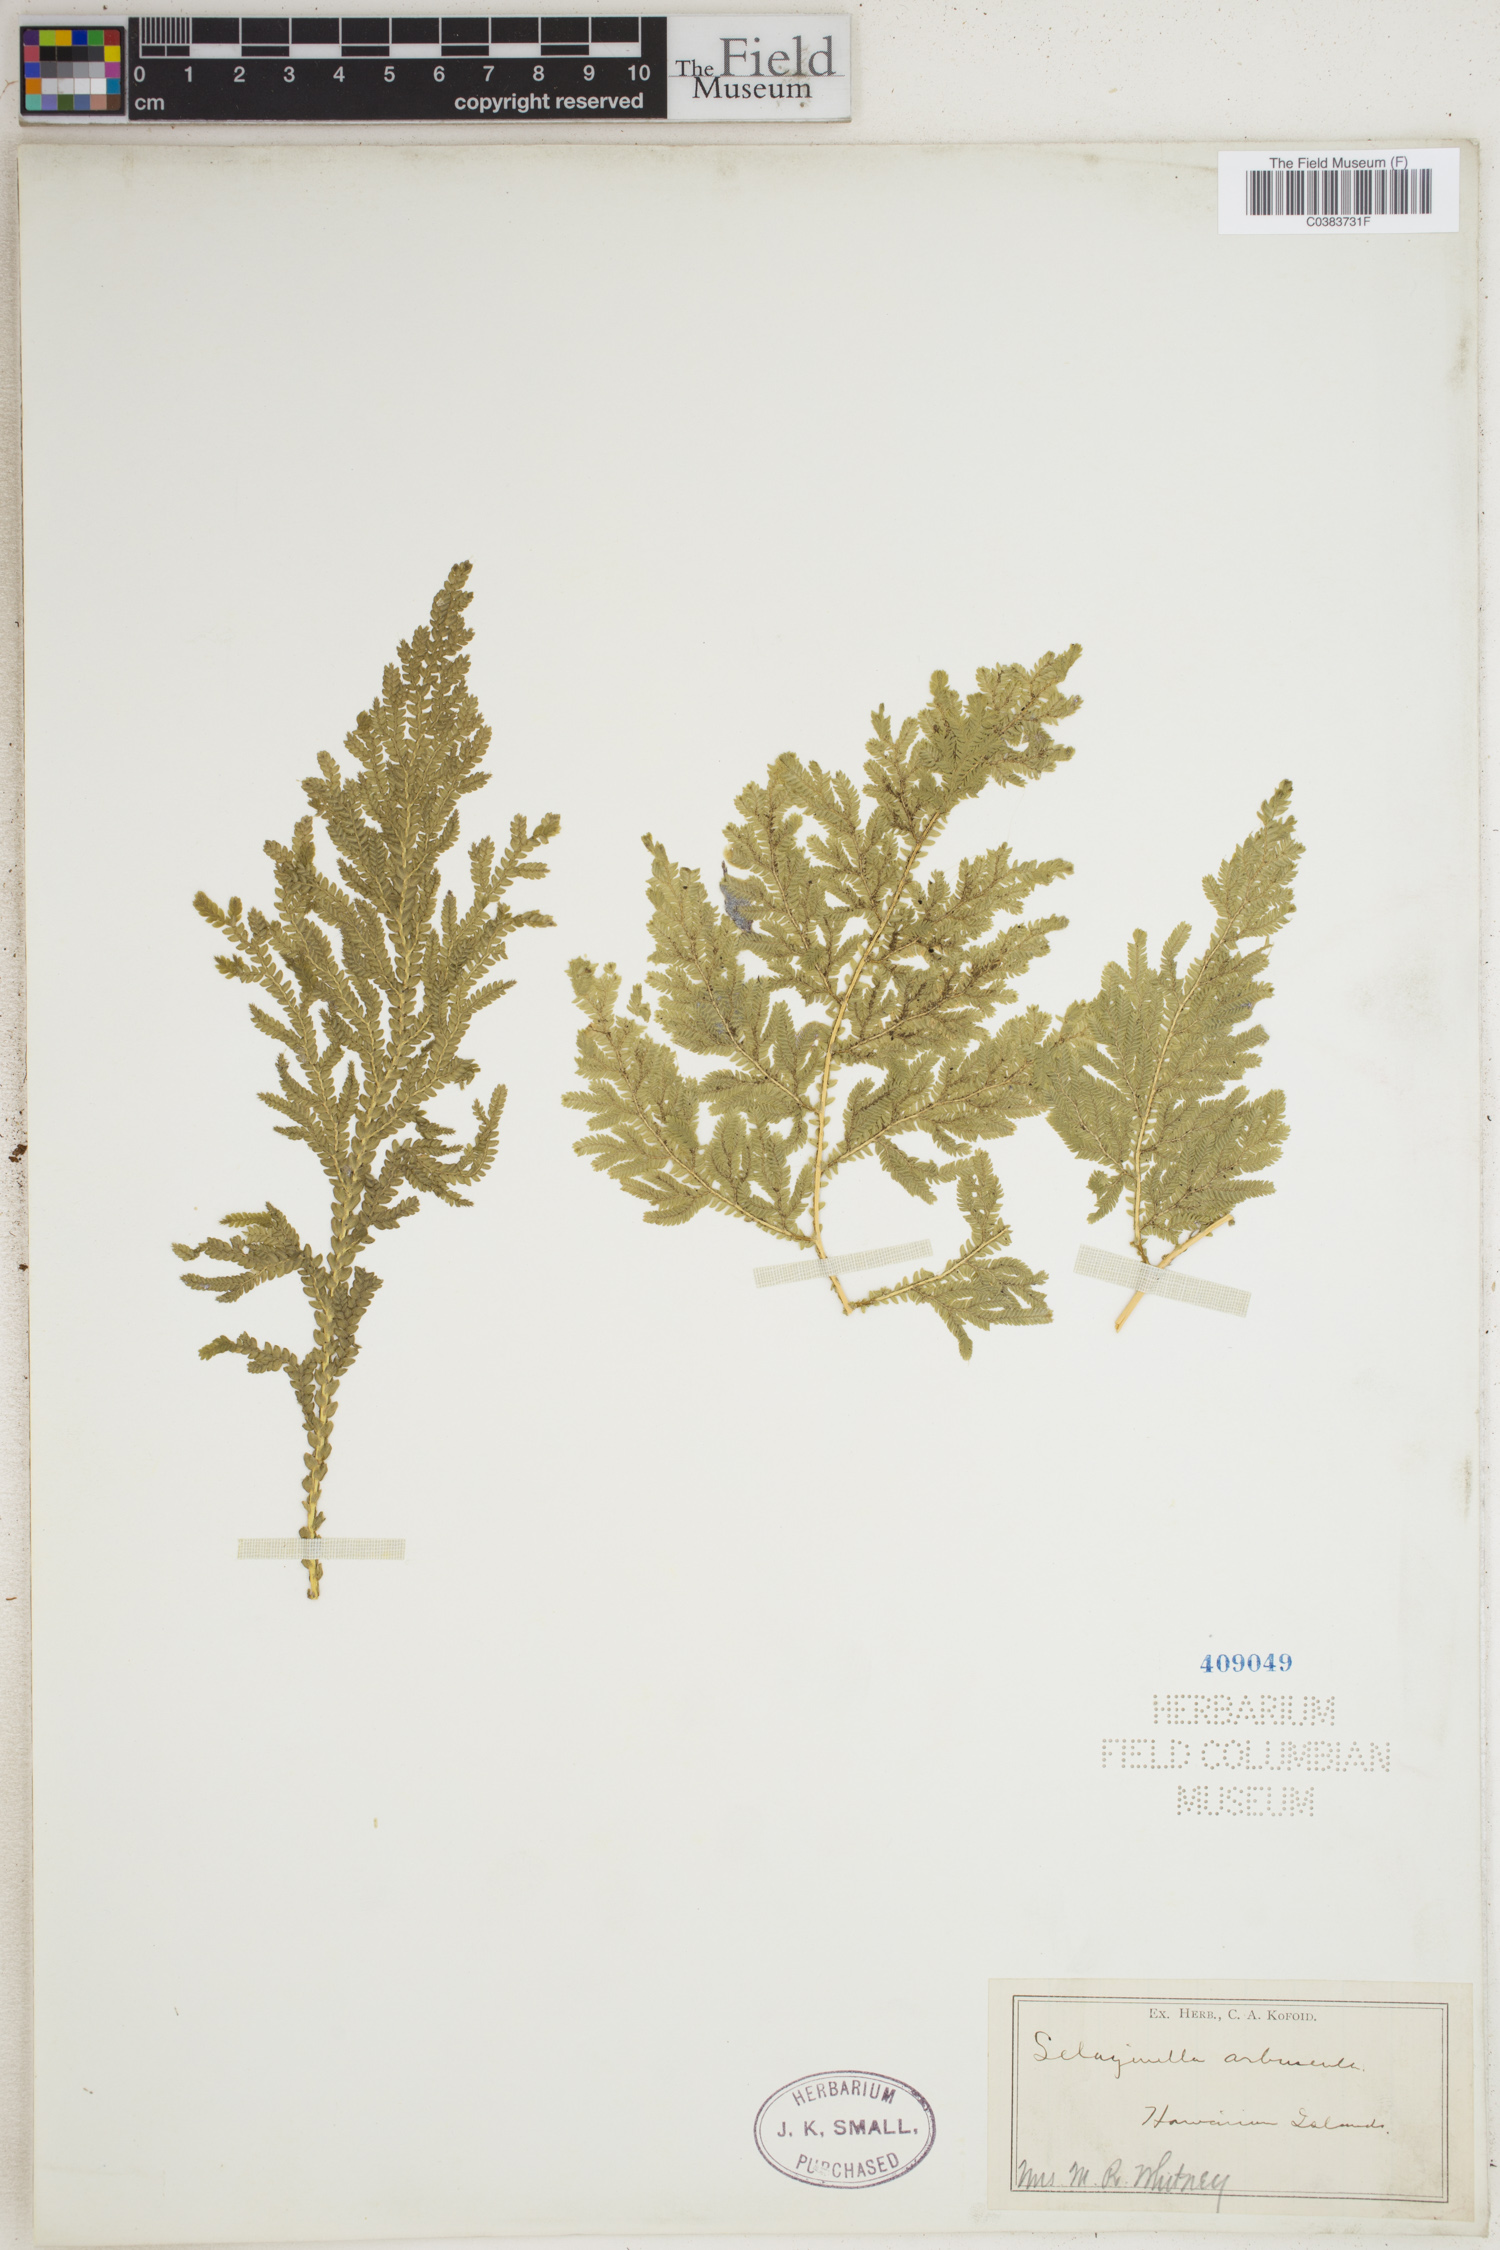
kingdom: Plantae
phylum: Tracheophyta
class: Lycopodiopsida
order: Selaginellales
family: Selaginellaceae
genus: Selaginella
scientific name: Selaginella arbuscula
